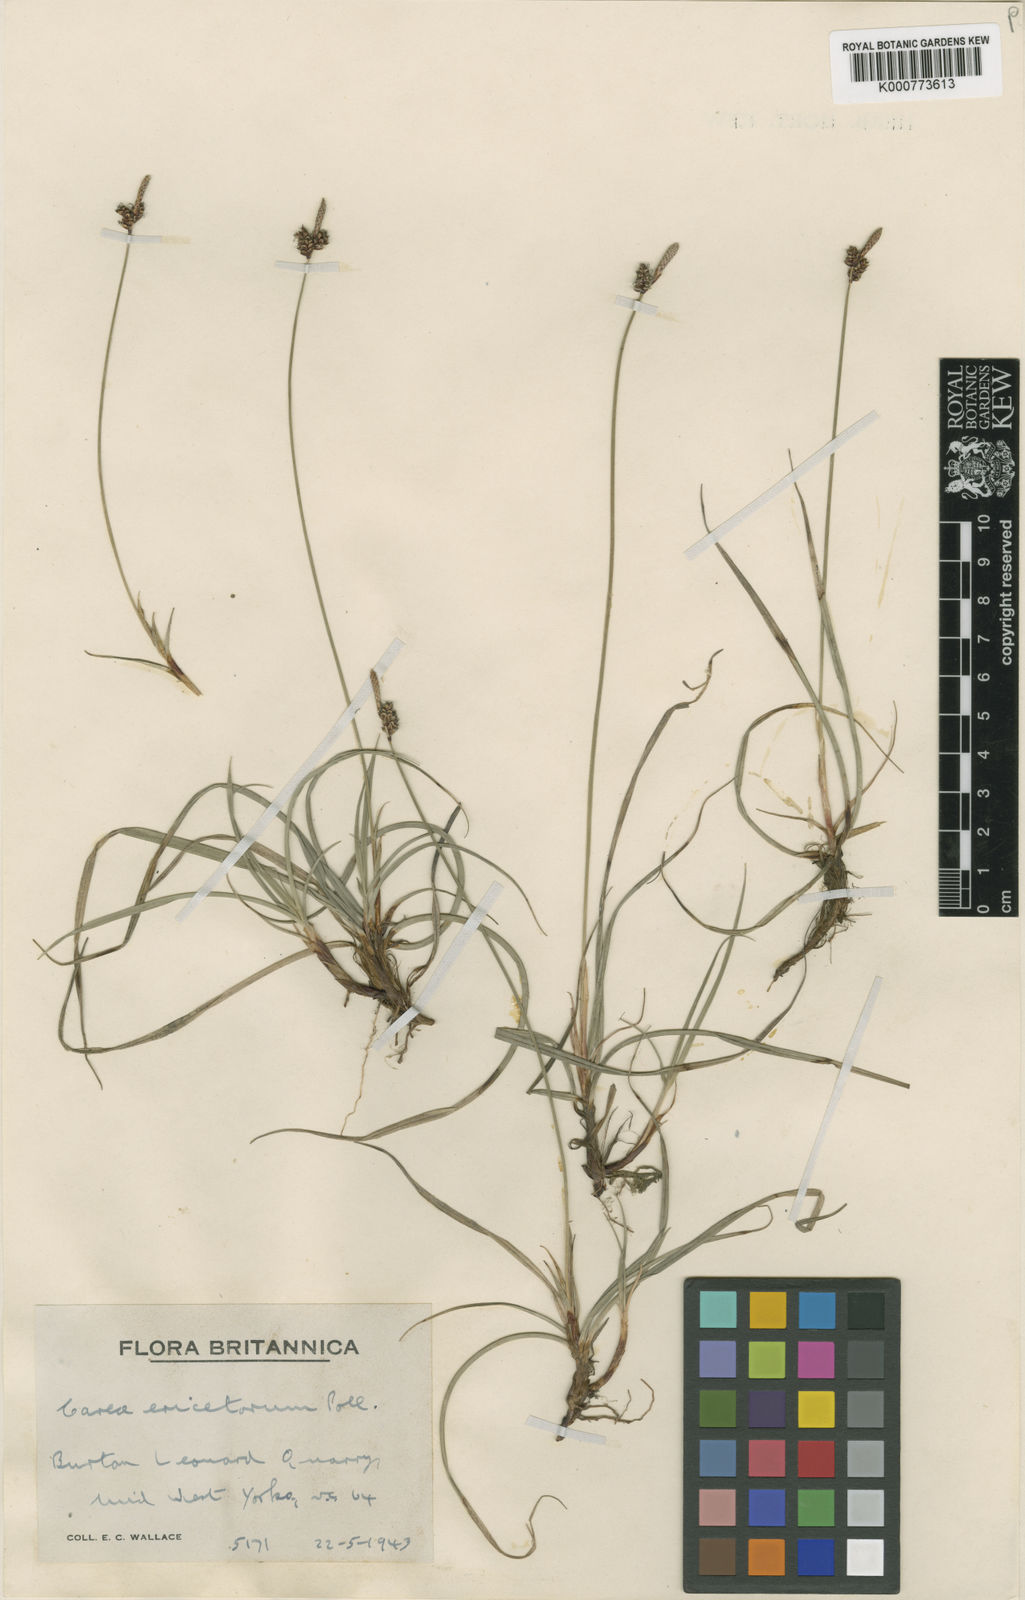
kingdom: Plantae
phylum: Tracheophyta
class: Liliopsida
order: Poales
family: Cyperaceae
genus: Carex
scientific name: Carex ericetorum
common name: Rare spring-sedge
